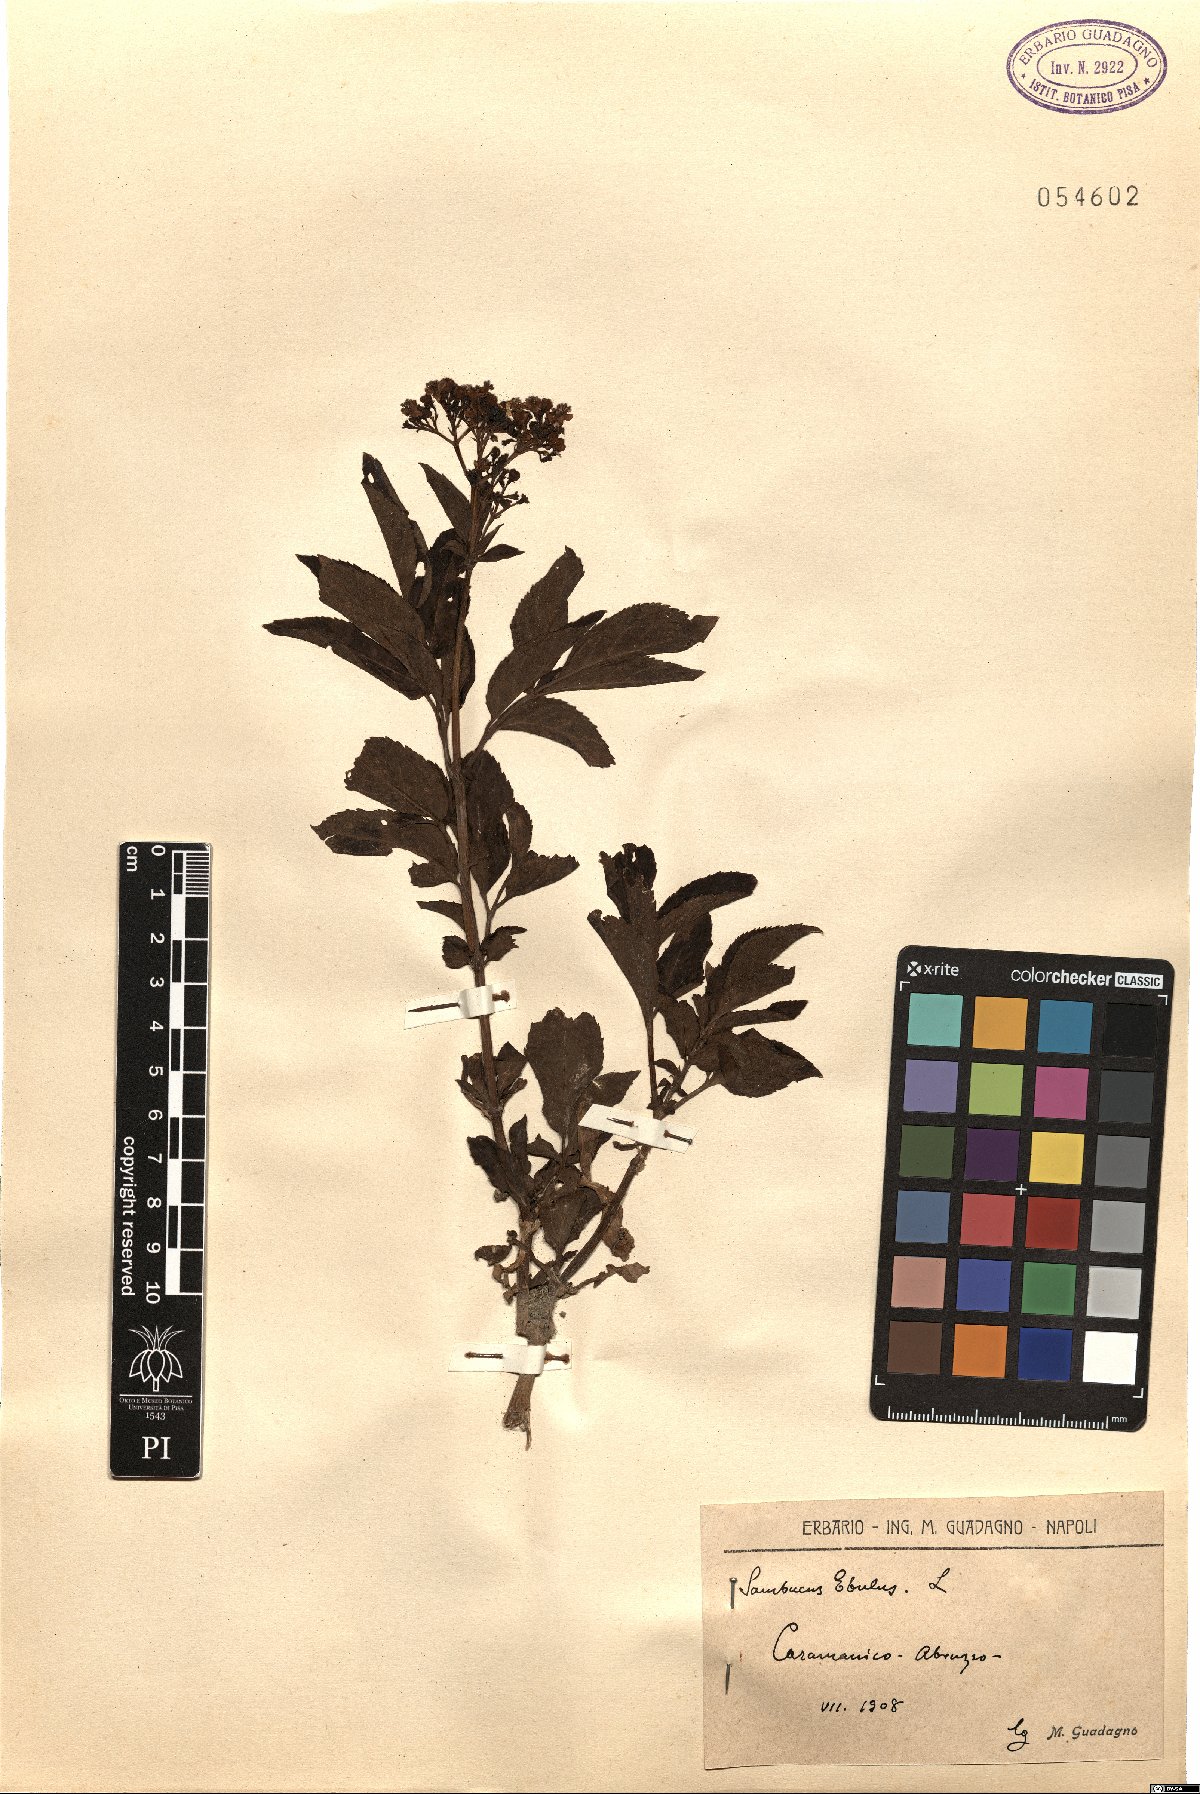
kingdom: Plantae
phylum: Tracheophyta
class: Magnoliopsida
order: Dipsacales
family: Viburnaceae
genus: Sambucus
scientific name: Sambucus ebulus
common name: Dwarf elder
